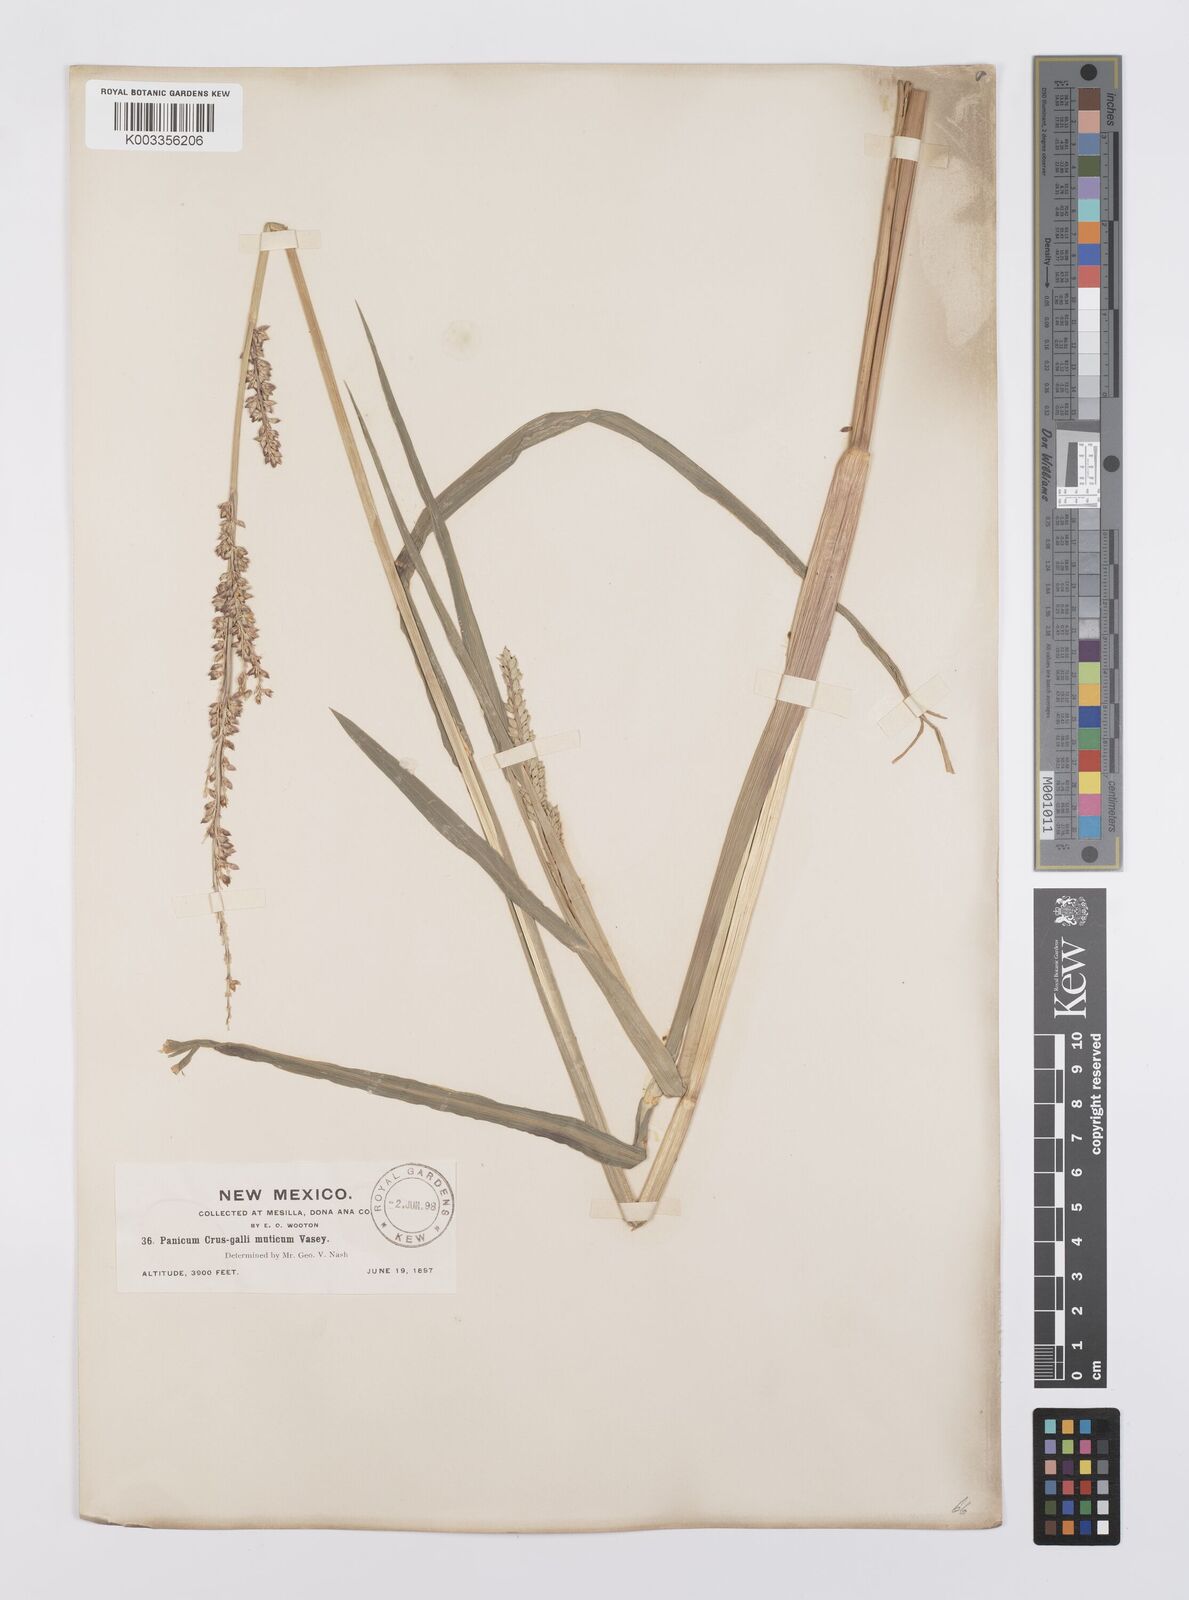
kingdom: Plantae
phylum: Tracheophyta
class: Liliopsida
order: Poales
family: Poaceae
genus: Echinochloa
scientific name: Echinochloa crus-galli
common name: Cockspur
